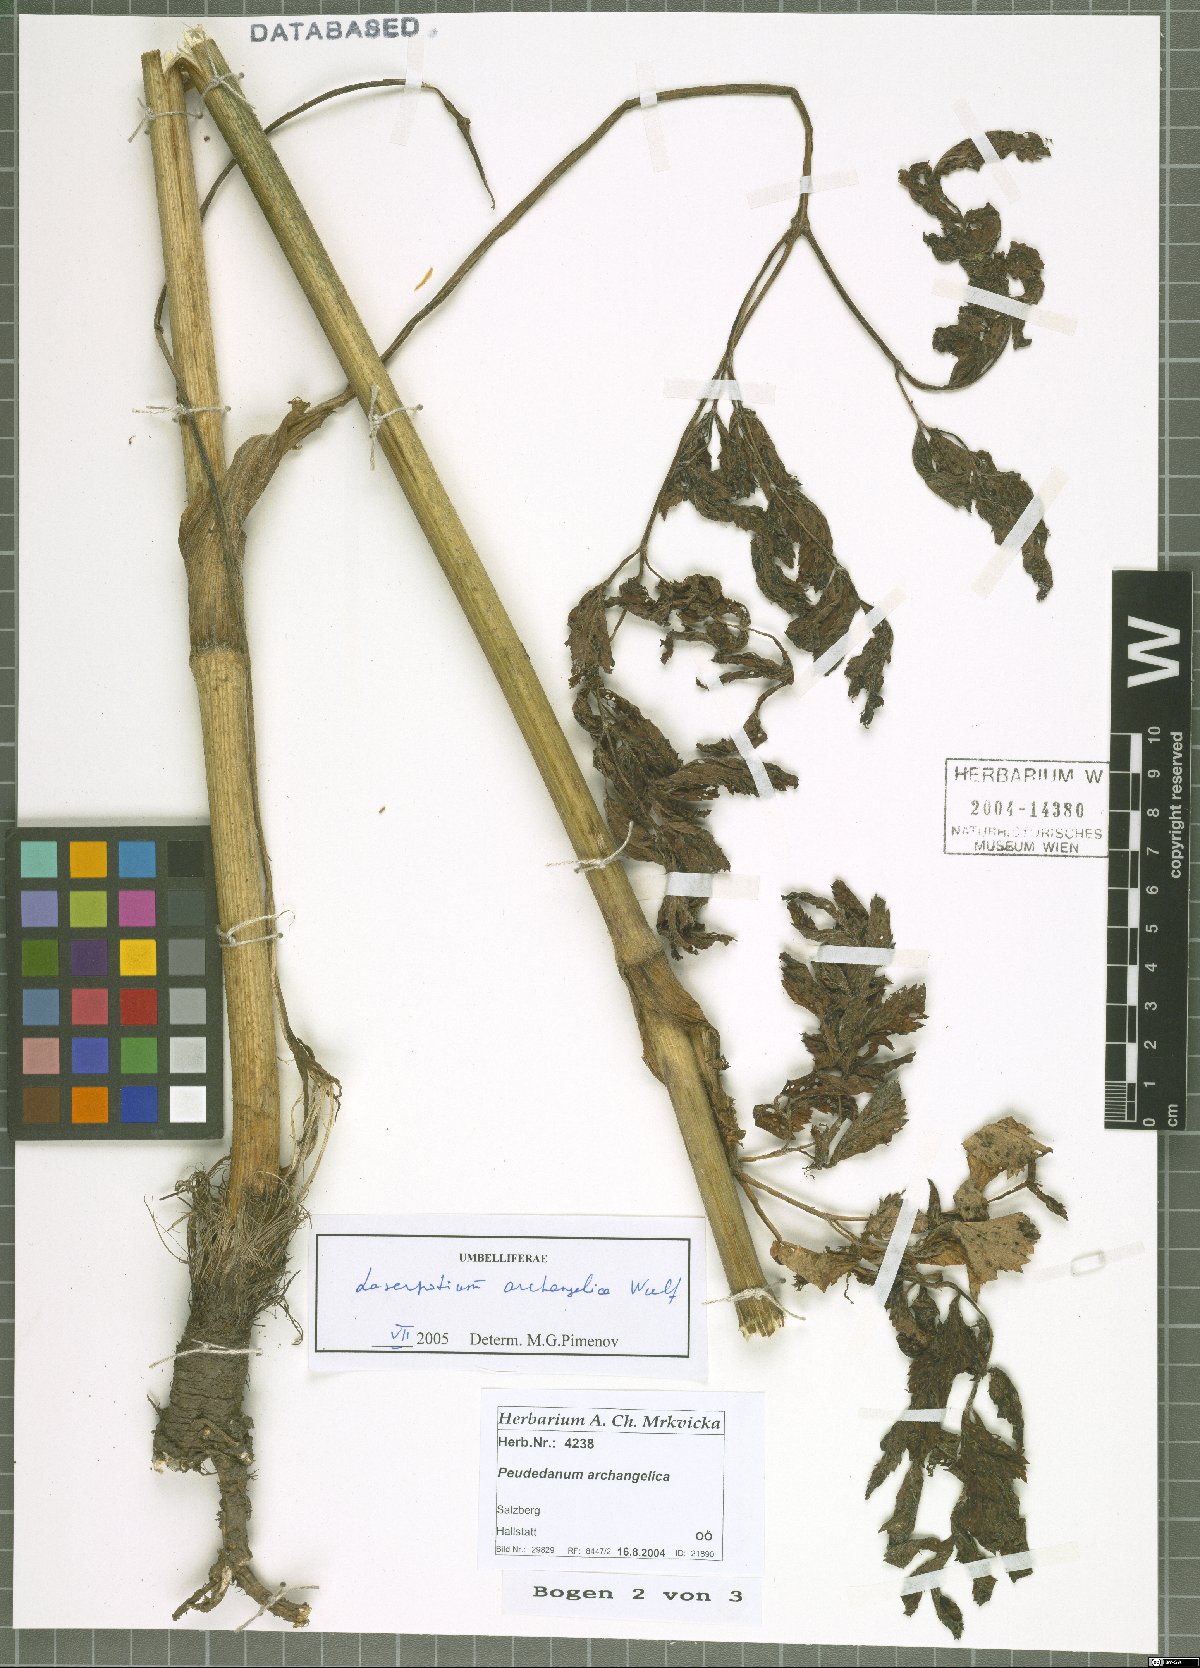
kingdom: Plantae
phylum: Tracheophyta
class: Magnoliopsida
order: Apiales
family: Apiaceae
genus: Laser
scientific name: Laser archangelica
